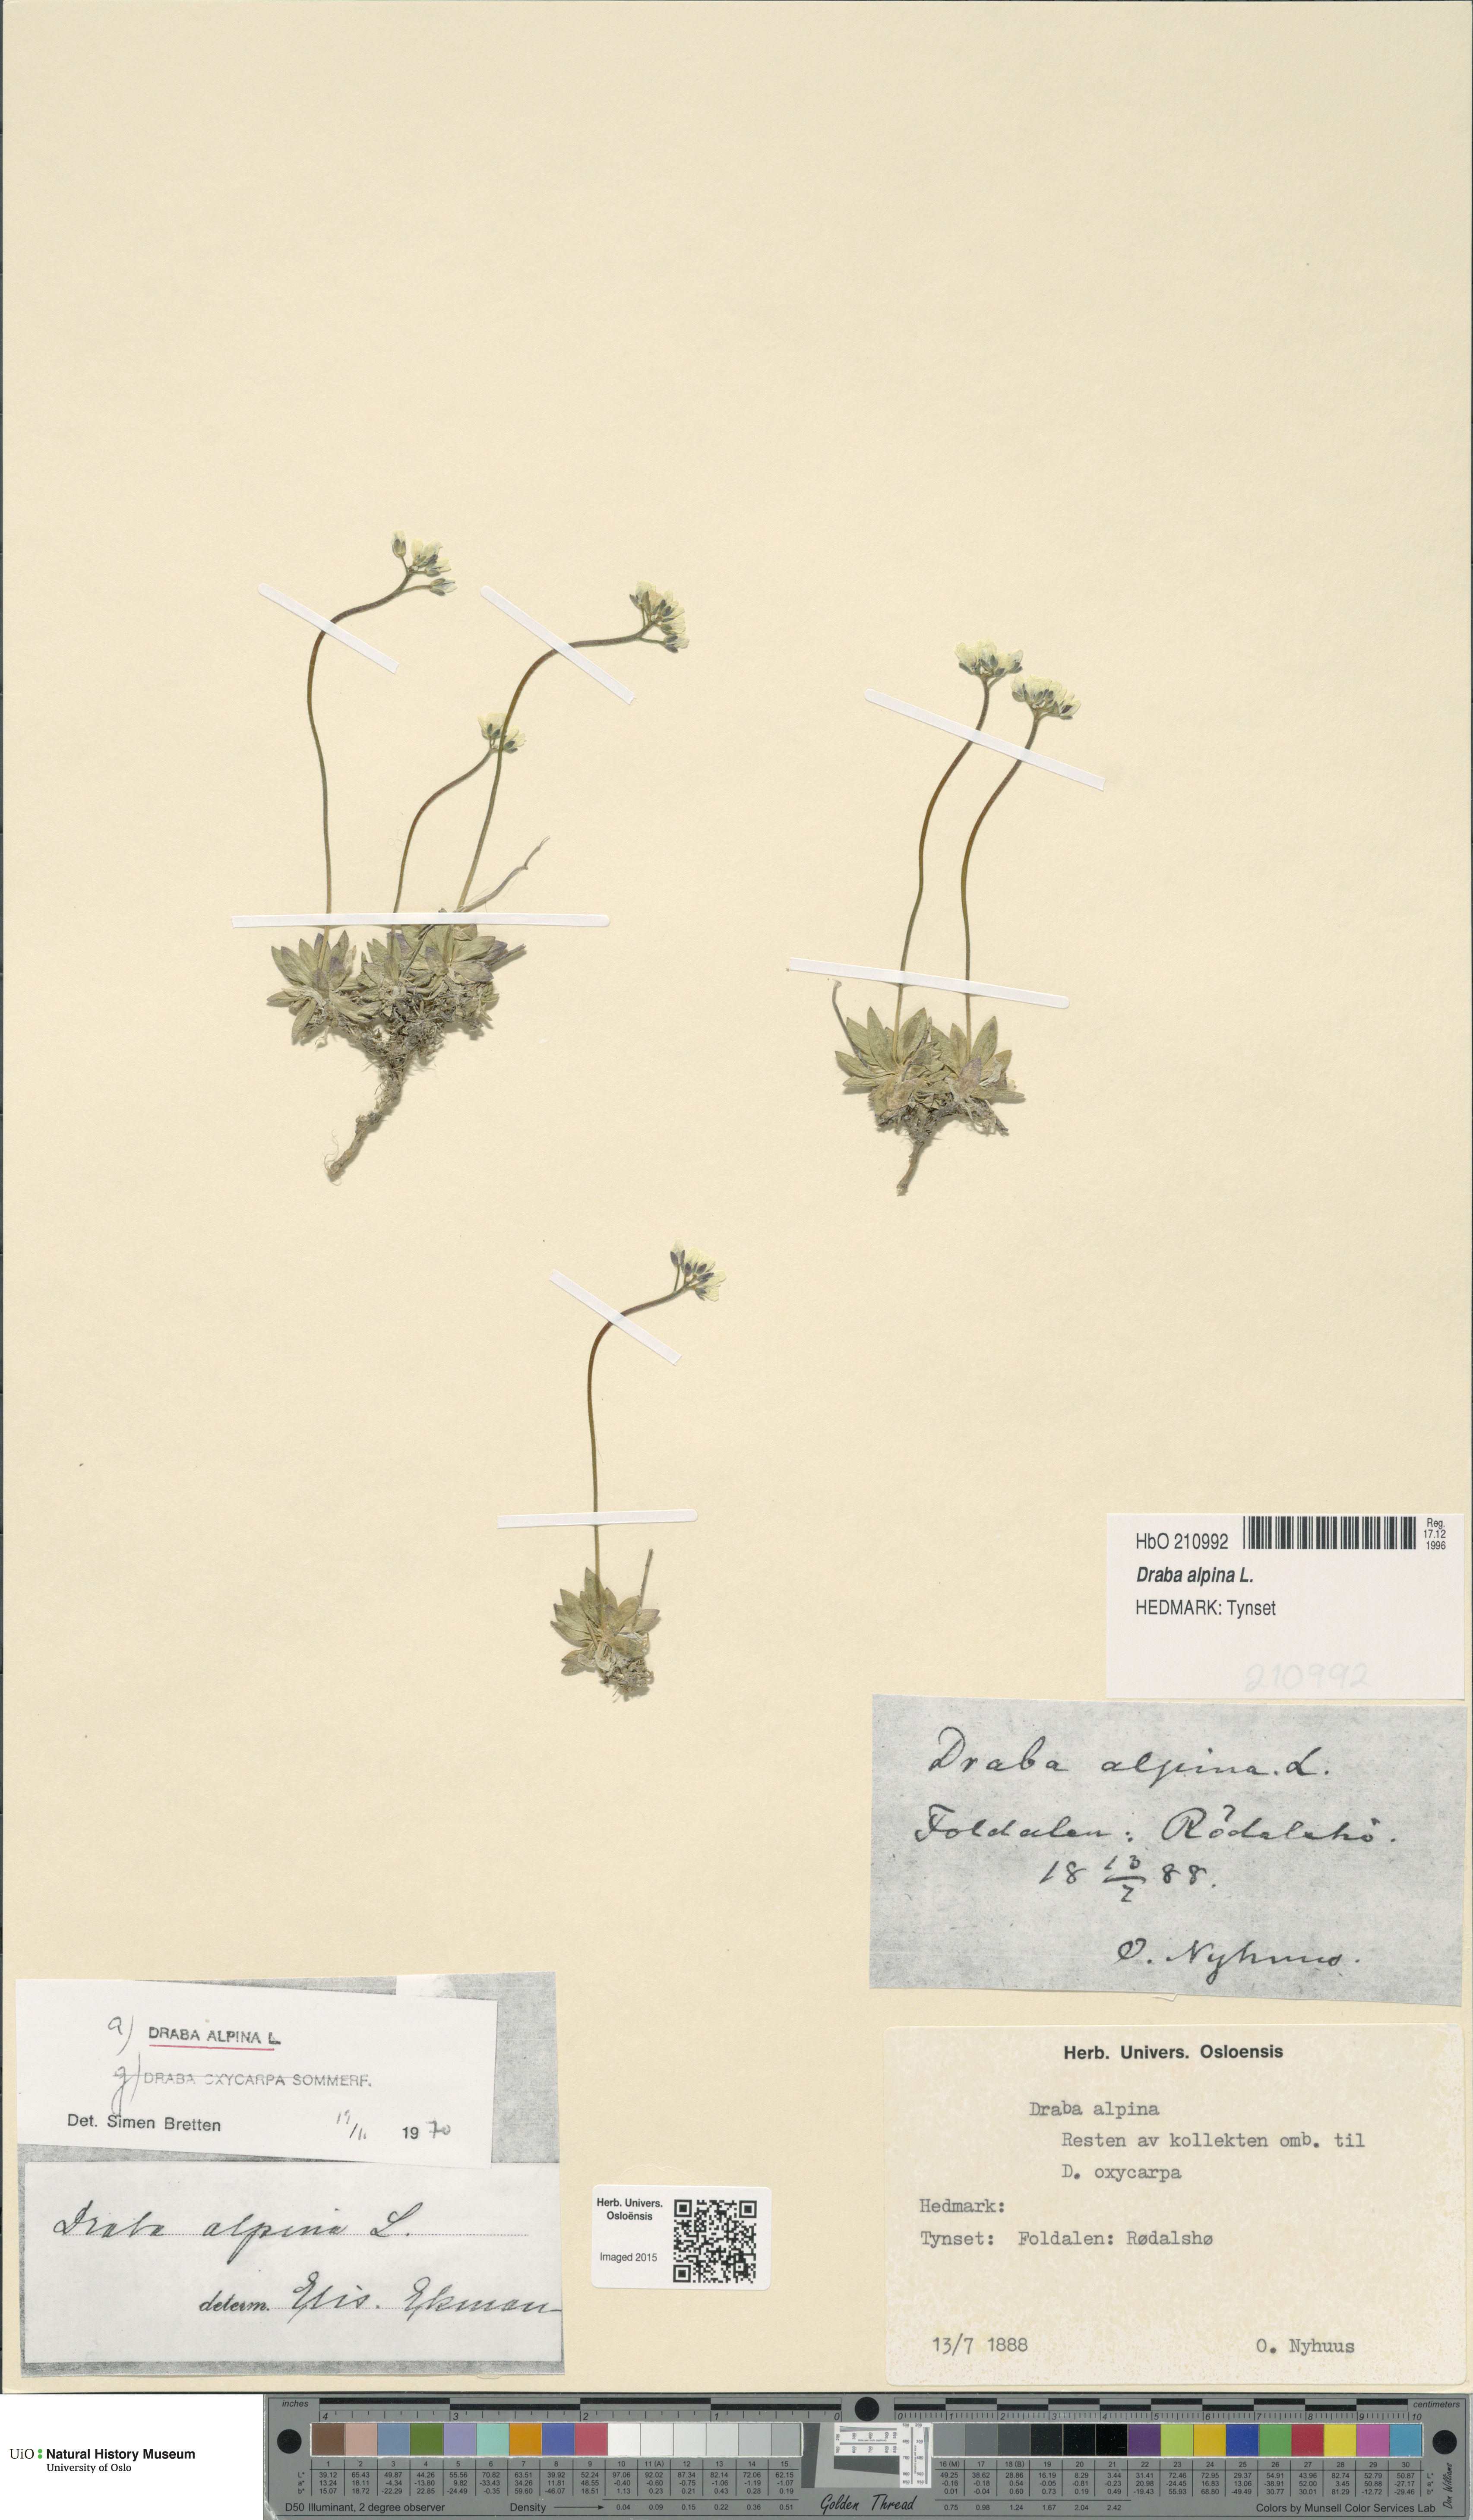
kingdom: Plantae
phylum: Tracheophyta
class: Magnoliopsida
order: Brassicales
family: Brassicaceae
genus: Draba
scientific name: Draba alpina
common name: Alpine draba
